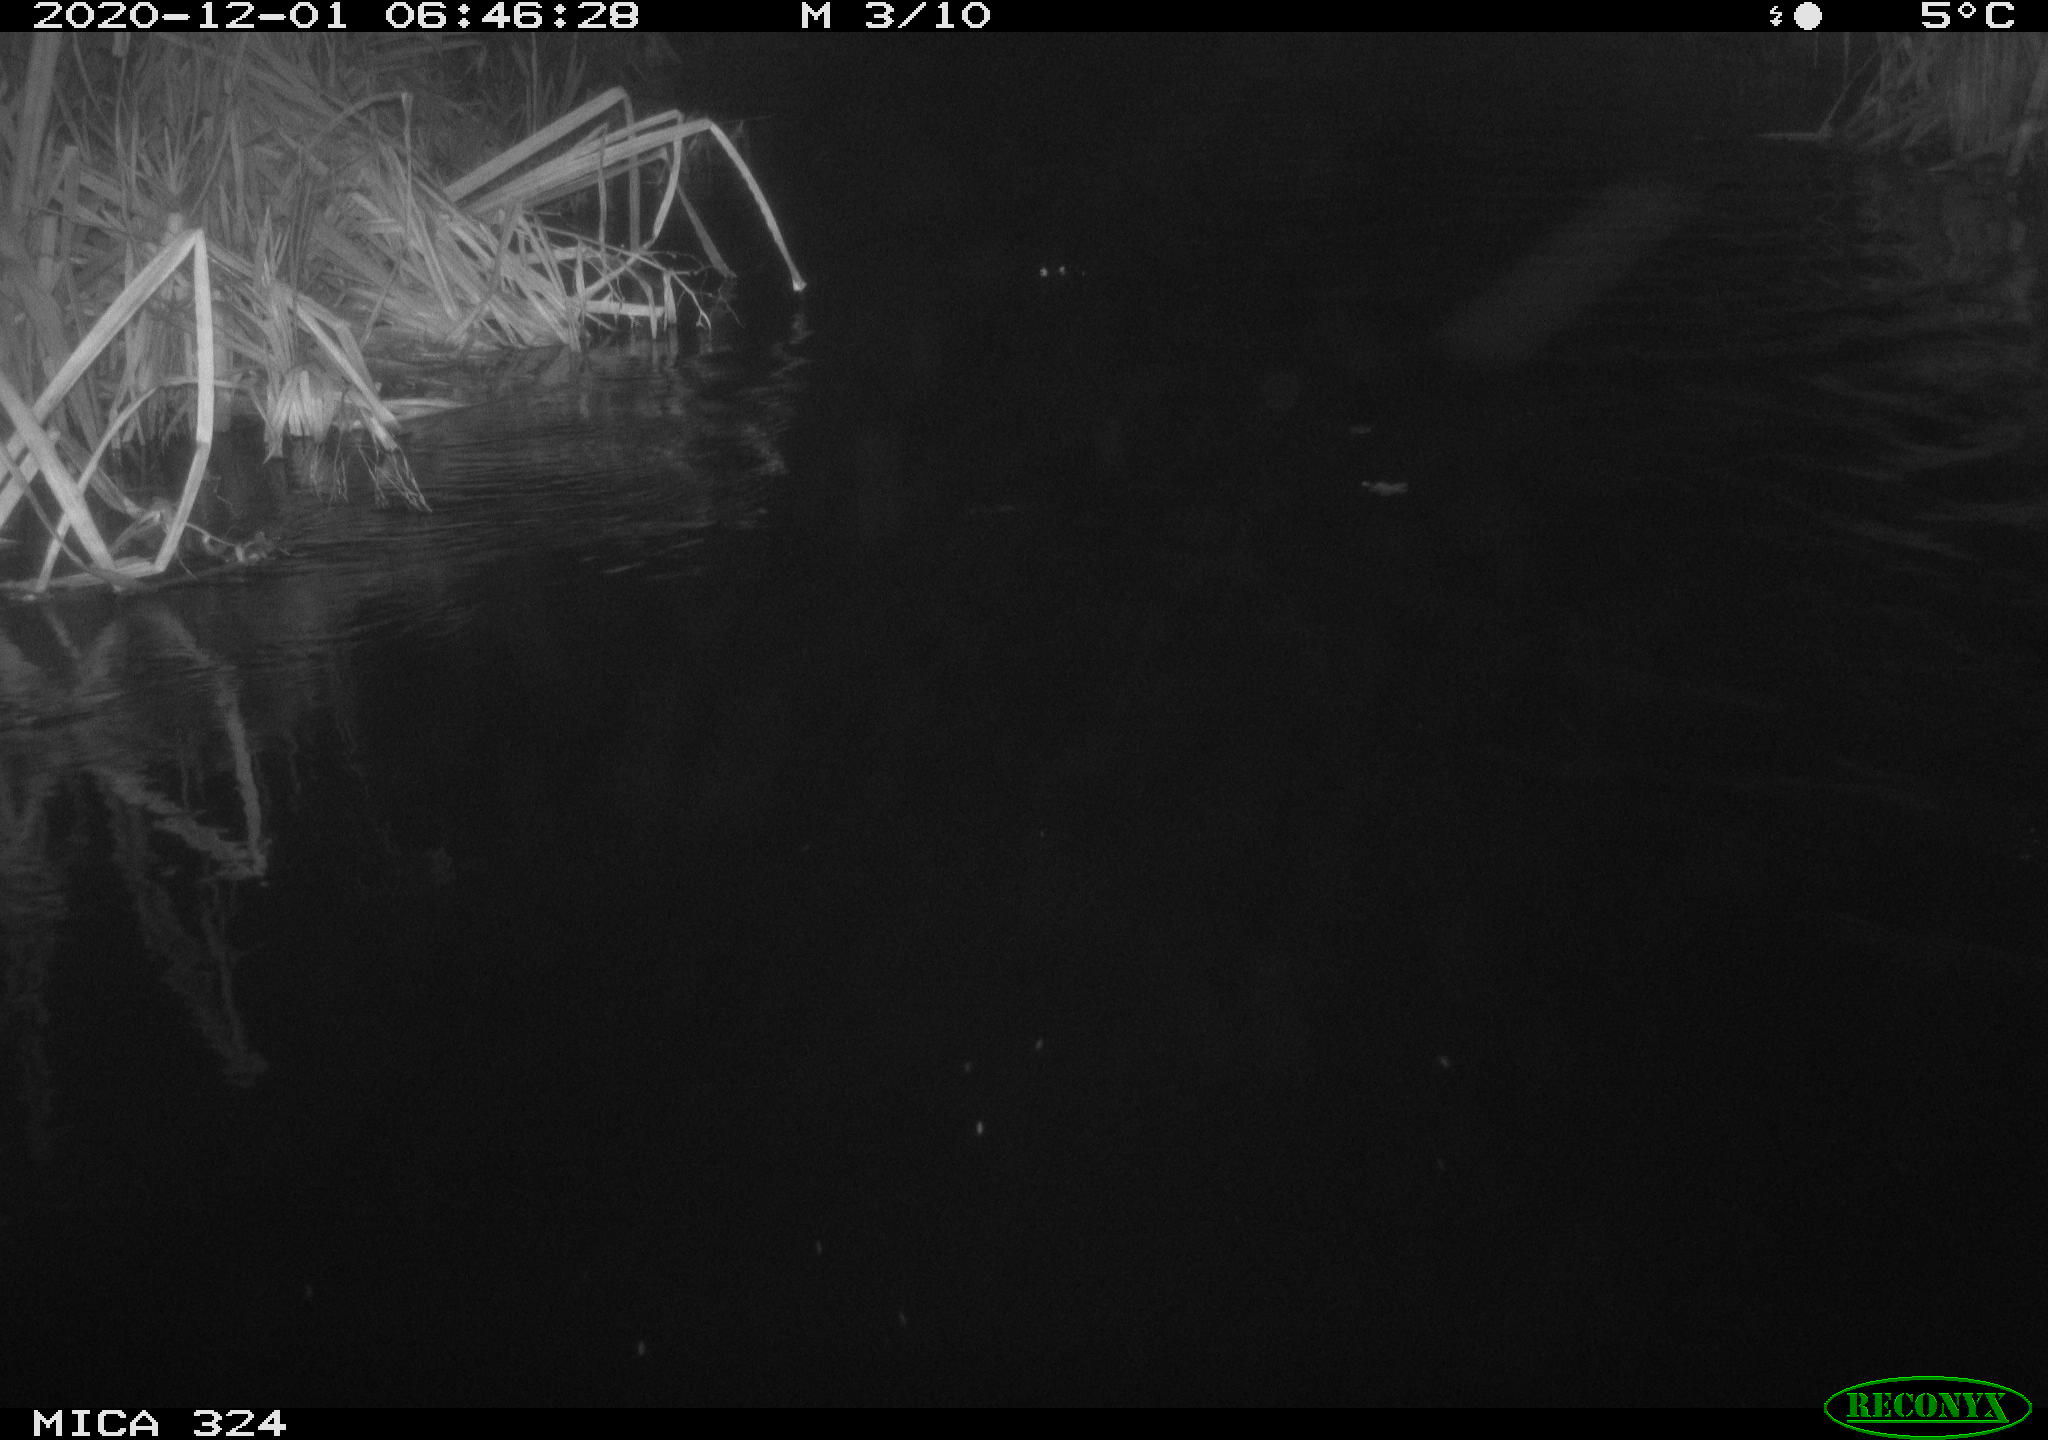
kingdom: Animalia
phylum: Chordata
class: Mammalia
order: Rodentia
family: Myocastoridae
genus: Myocastor
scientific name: Myocastor coypus
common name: Coypu
